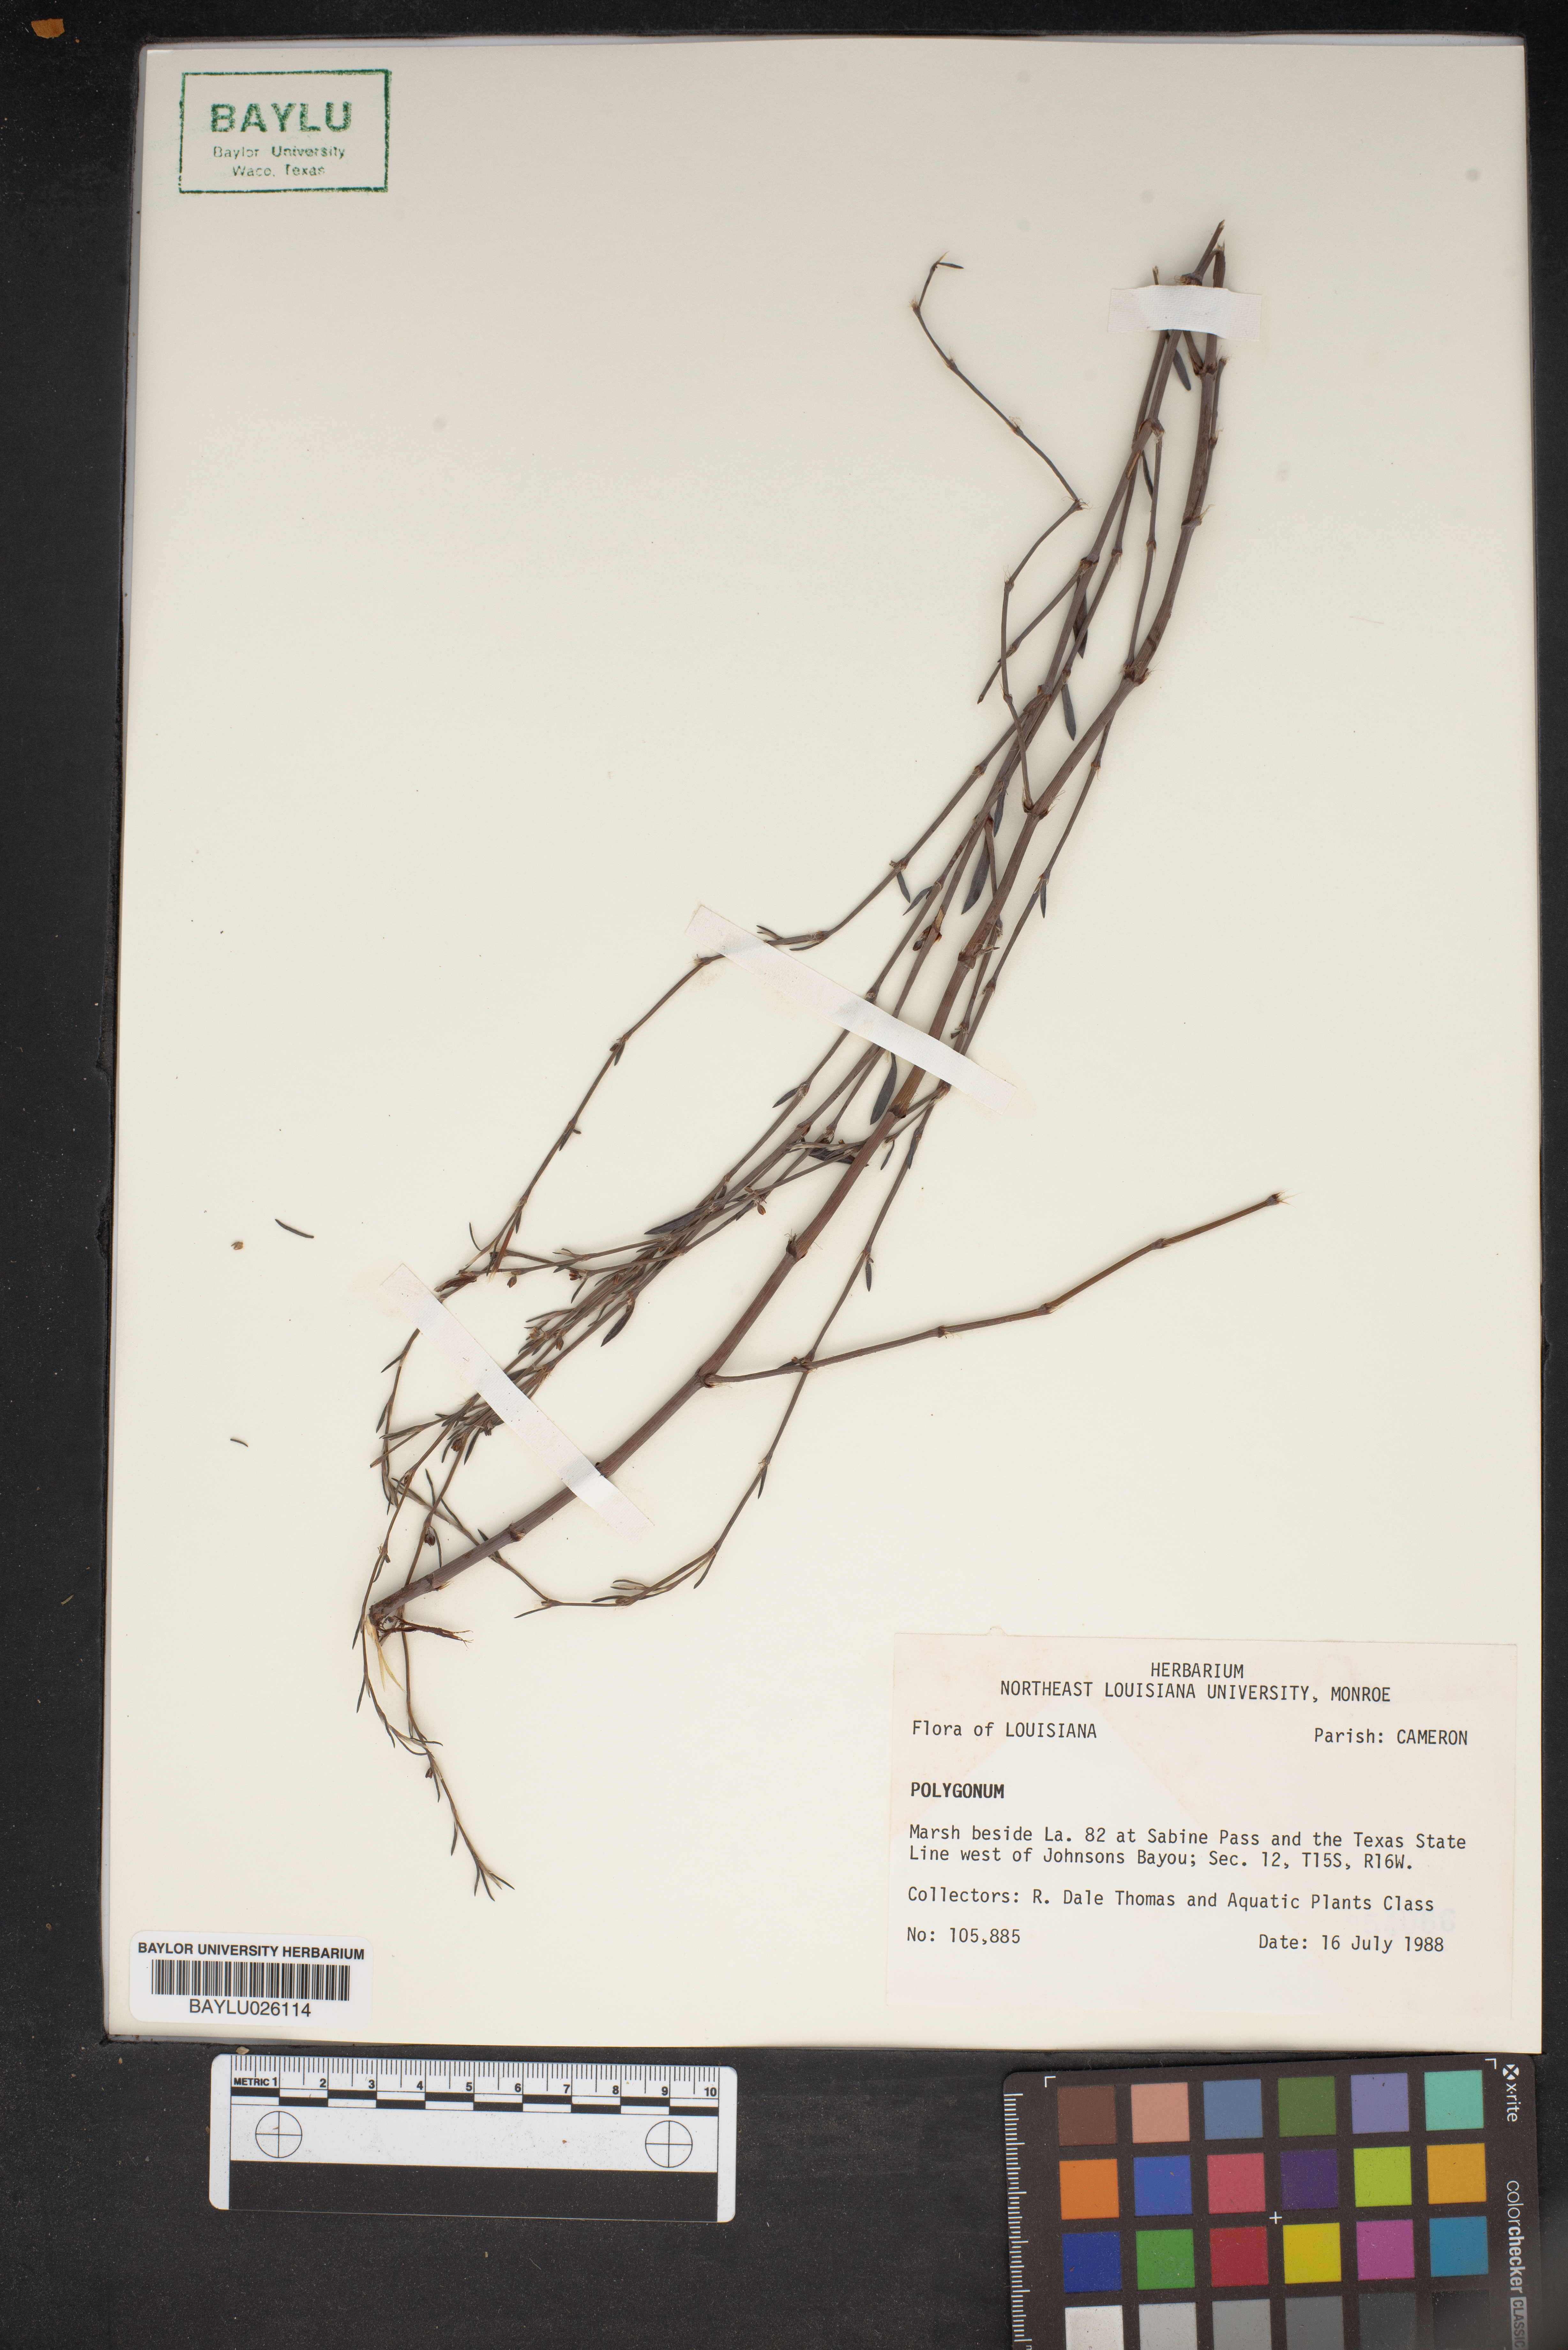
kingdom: Plantae
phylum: Tracheophyta
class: Magnoliopsida
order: Caryophyllales
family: Polygonaceae
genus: Polygonum
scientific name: Polygonum
